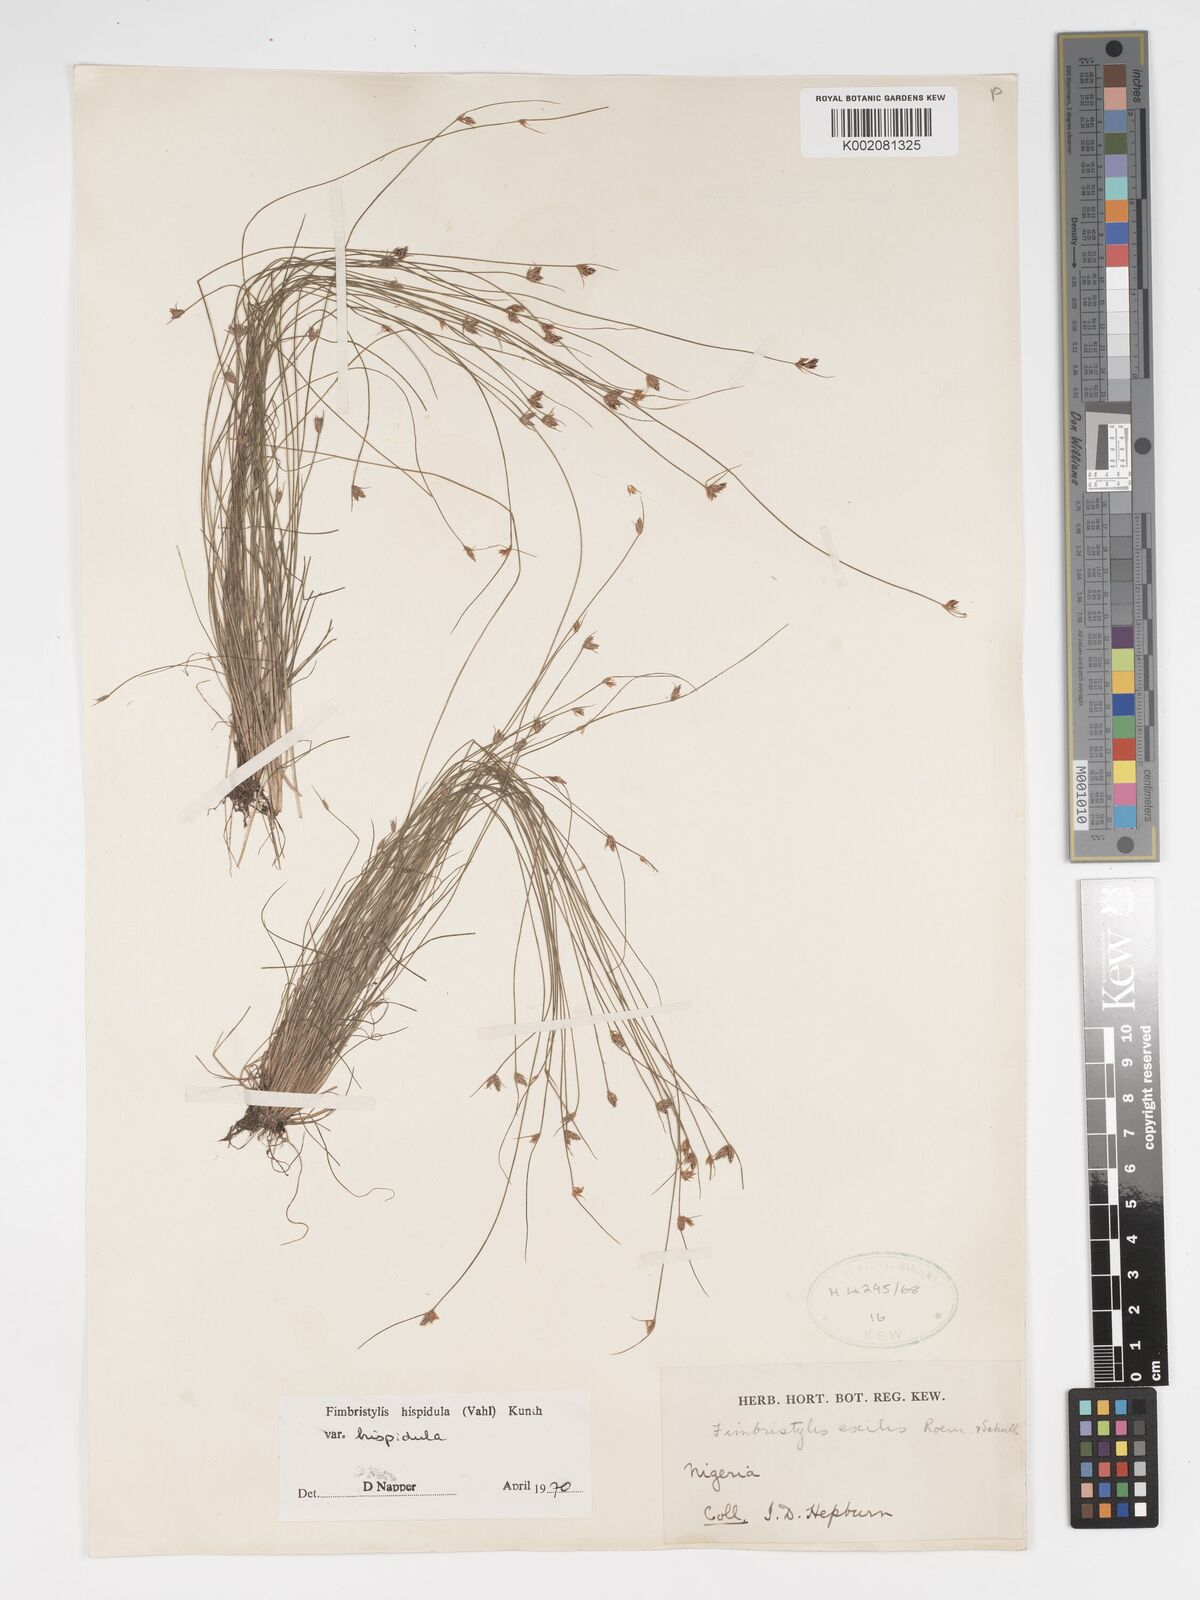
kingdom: Plantae
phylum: Tracheophyta
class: Liliopsida
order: Poales
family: Cyperaceae
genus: Bulbostylis
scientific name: Bulbostylis hispidula
